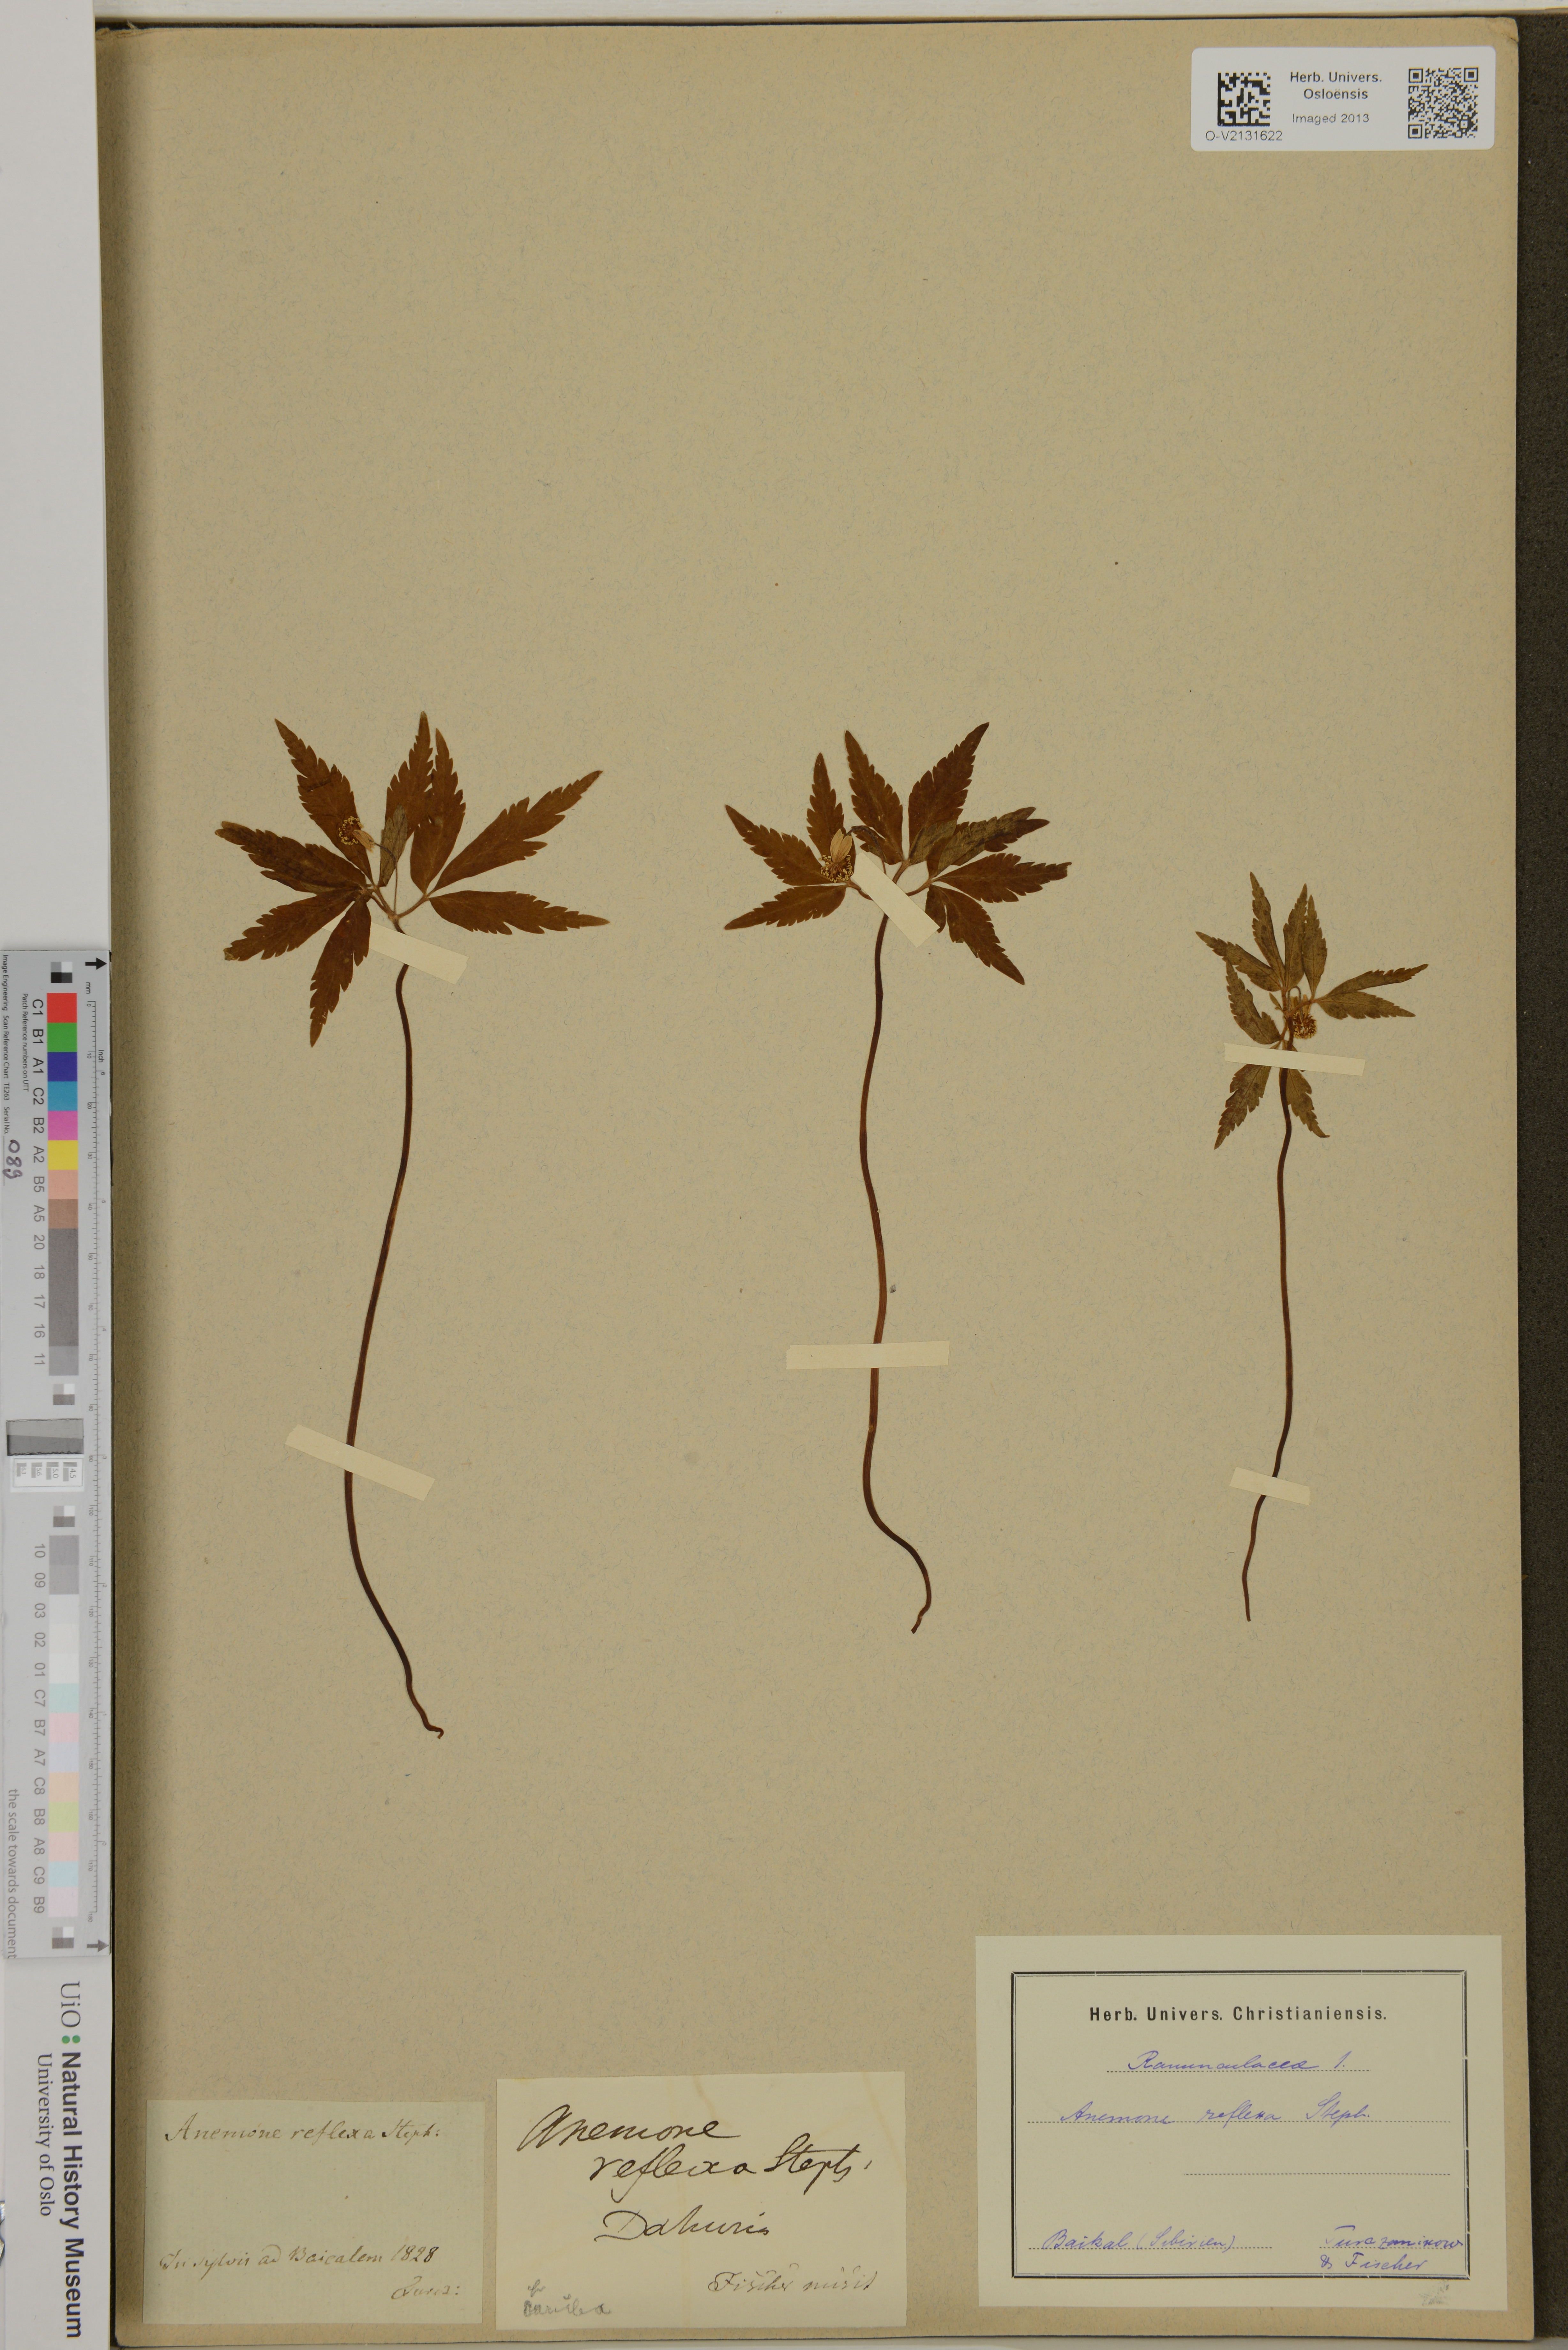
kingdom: Plantae
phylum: Tracheophyta
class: Magnoliopsida
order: Ranunculales
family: Ranunculaceae
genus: Anemone
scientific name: Anemone reflexa
